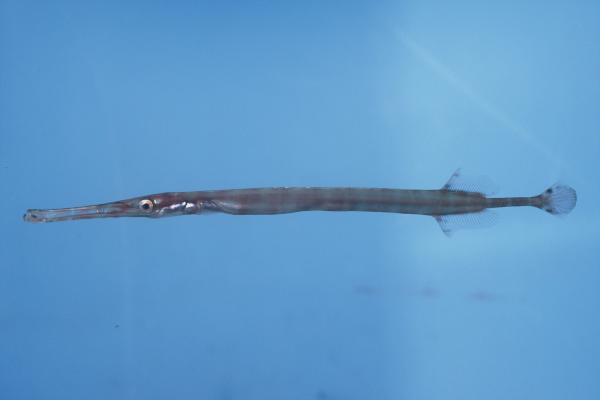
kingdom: Animalia
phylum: Chordata
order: Syngnathiformes
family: Aulostomidae
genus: Aulostomus
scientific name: Aulostomus chinensis
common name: Chinese trumpetfish
